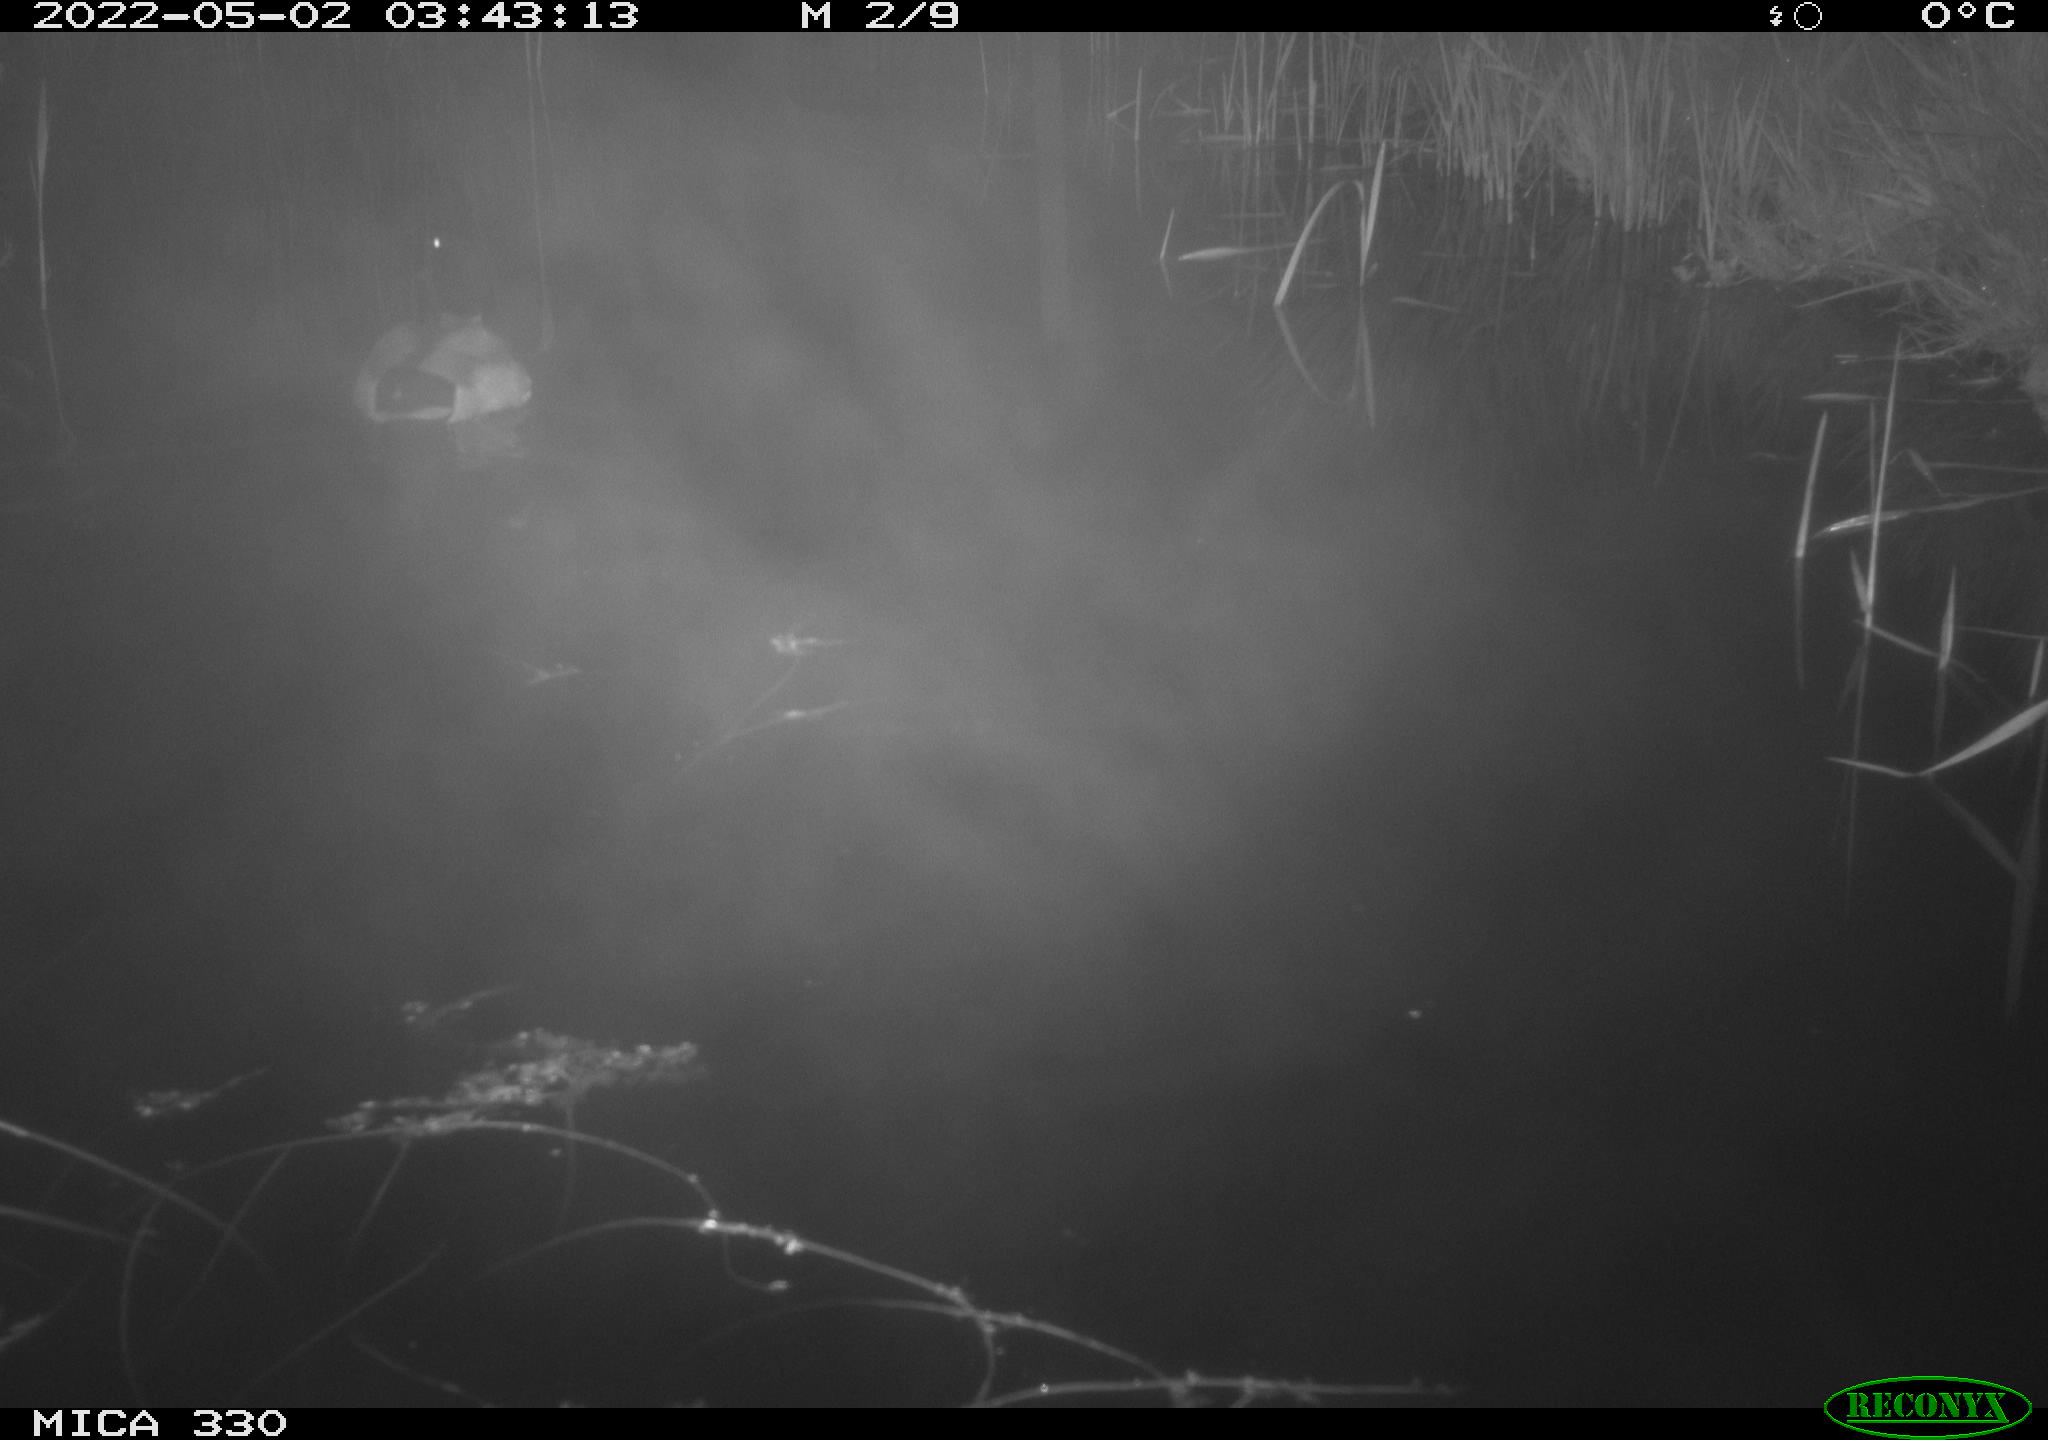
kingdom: Animalia
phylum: Chordata
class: Aves
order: Anseriformes
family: Anatidae
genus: Anas
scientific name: Anas platyrhynchos
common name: Mallard
